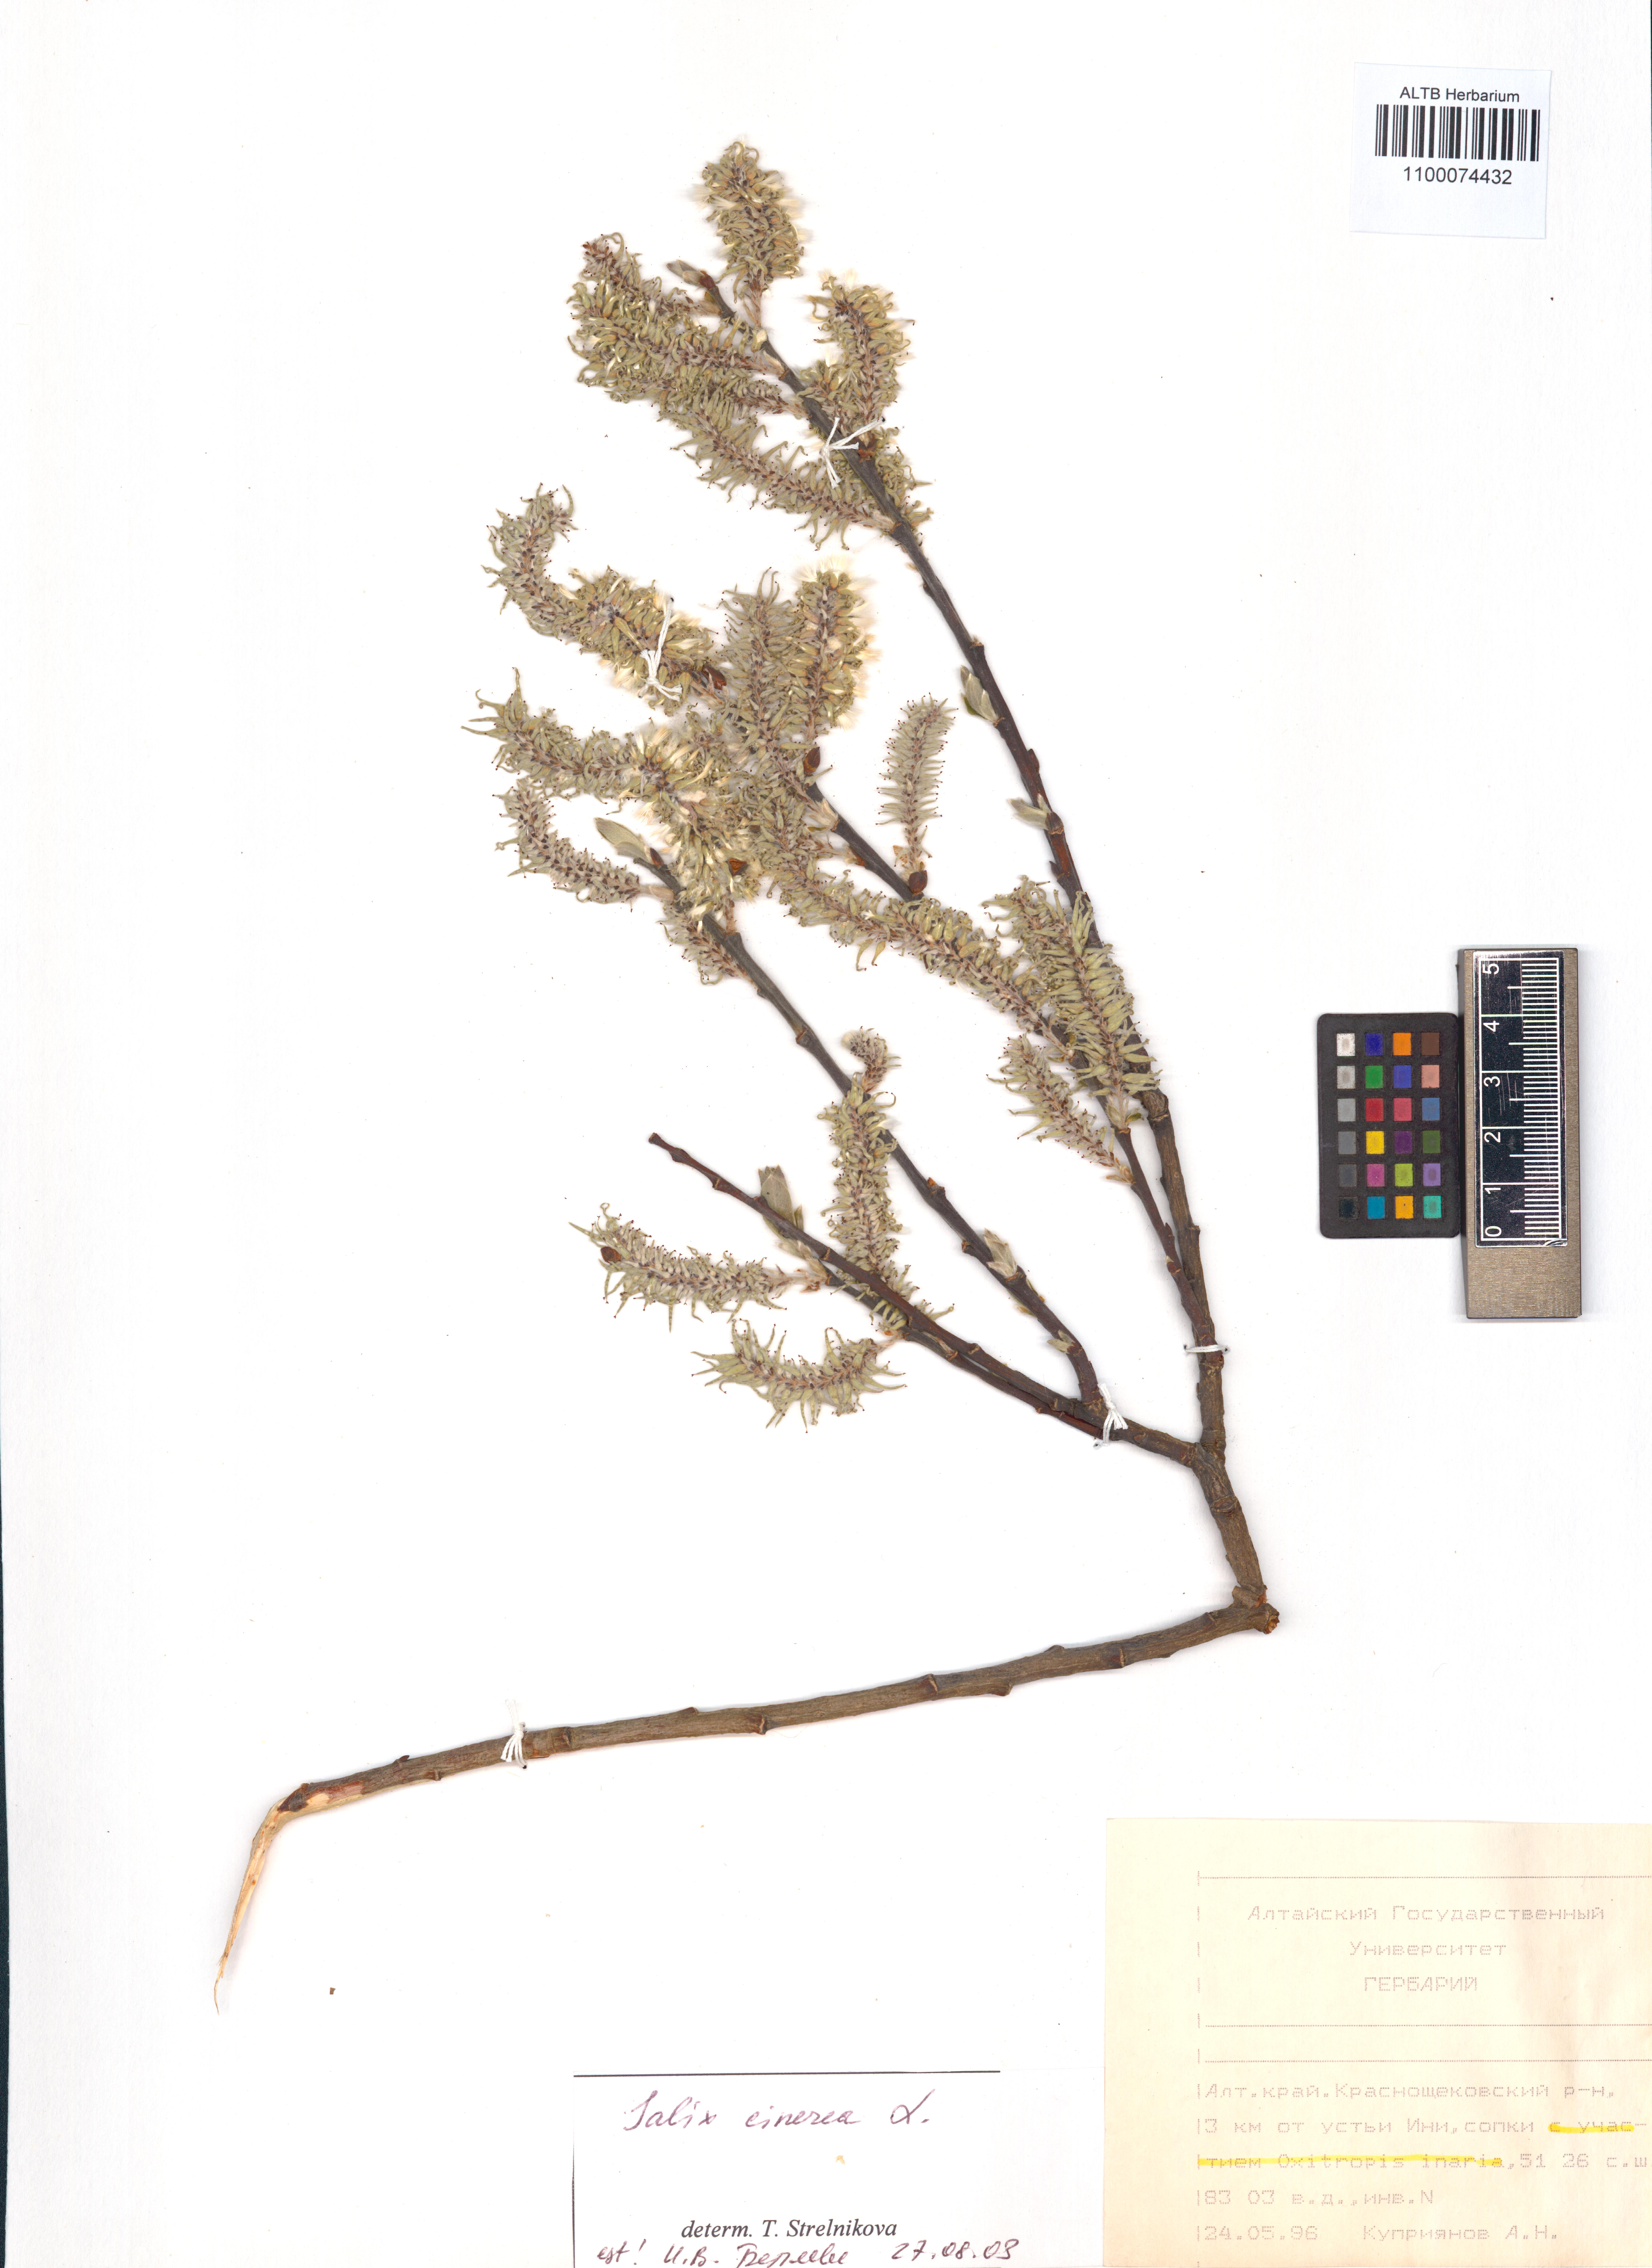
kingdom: Plantae
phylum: Tracheophyta
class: Magnoliopsida
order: Malpighiales
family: Salicaceae
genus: Salix
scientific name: Salix cinerea
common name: Common sallow
